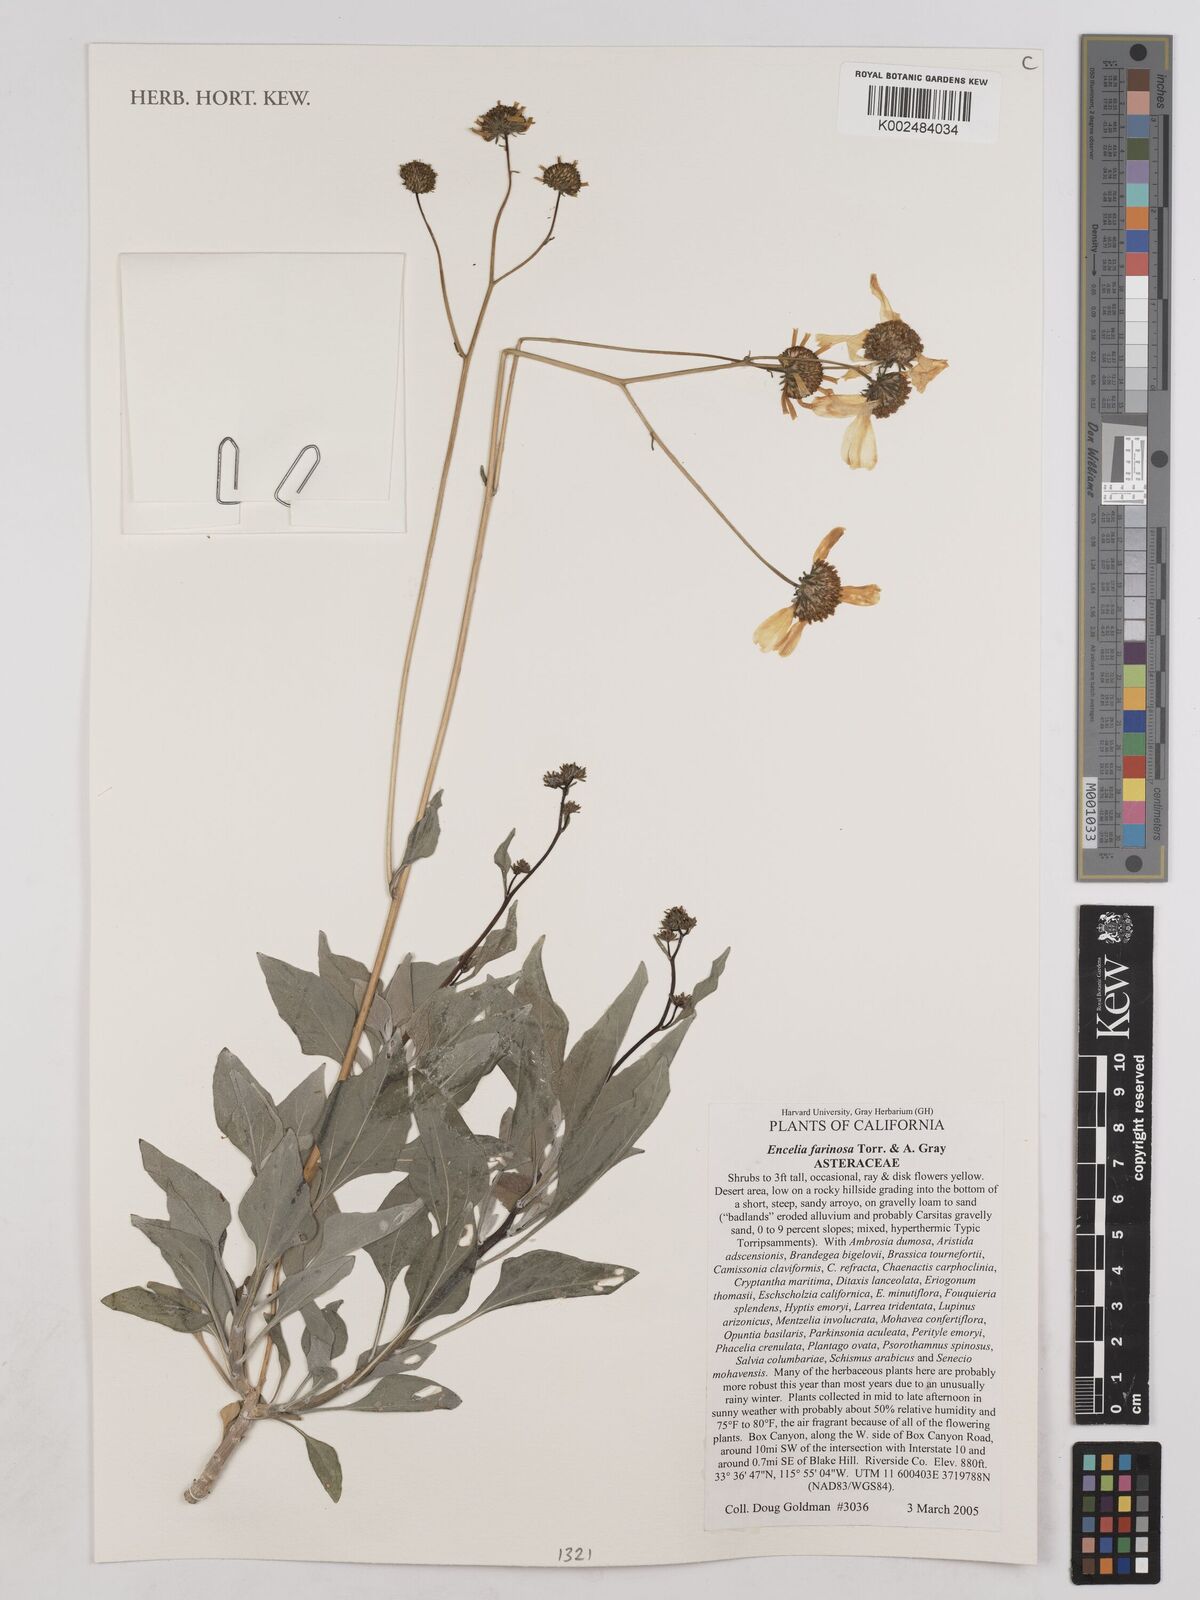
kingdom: Plantae
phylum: Tracheophyta
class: Magnoliopsida
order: Asterales
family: Asteraceae
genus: Encelia
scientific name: Encelia farinosa
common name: Brittlebush
